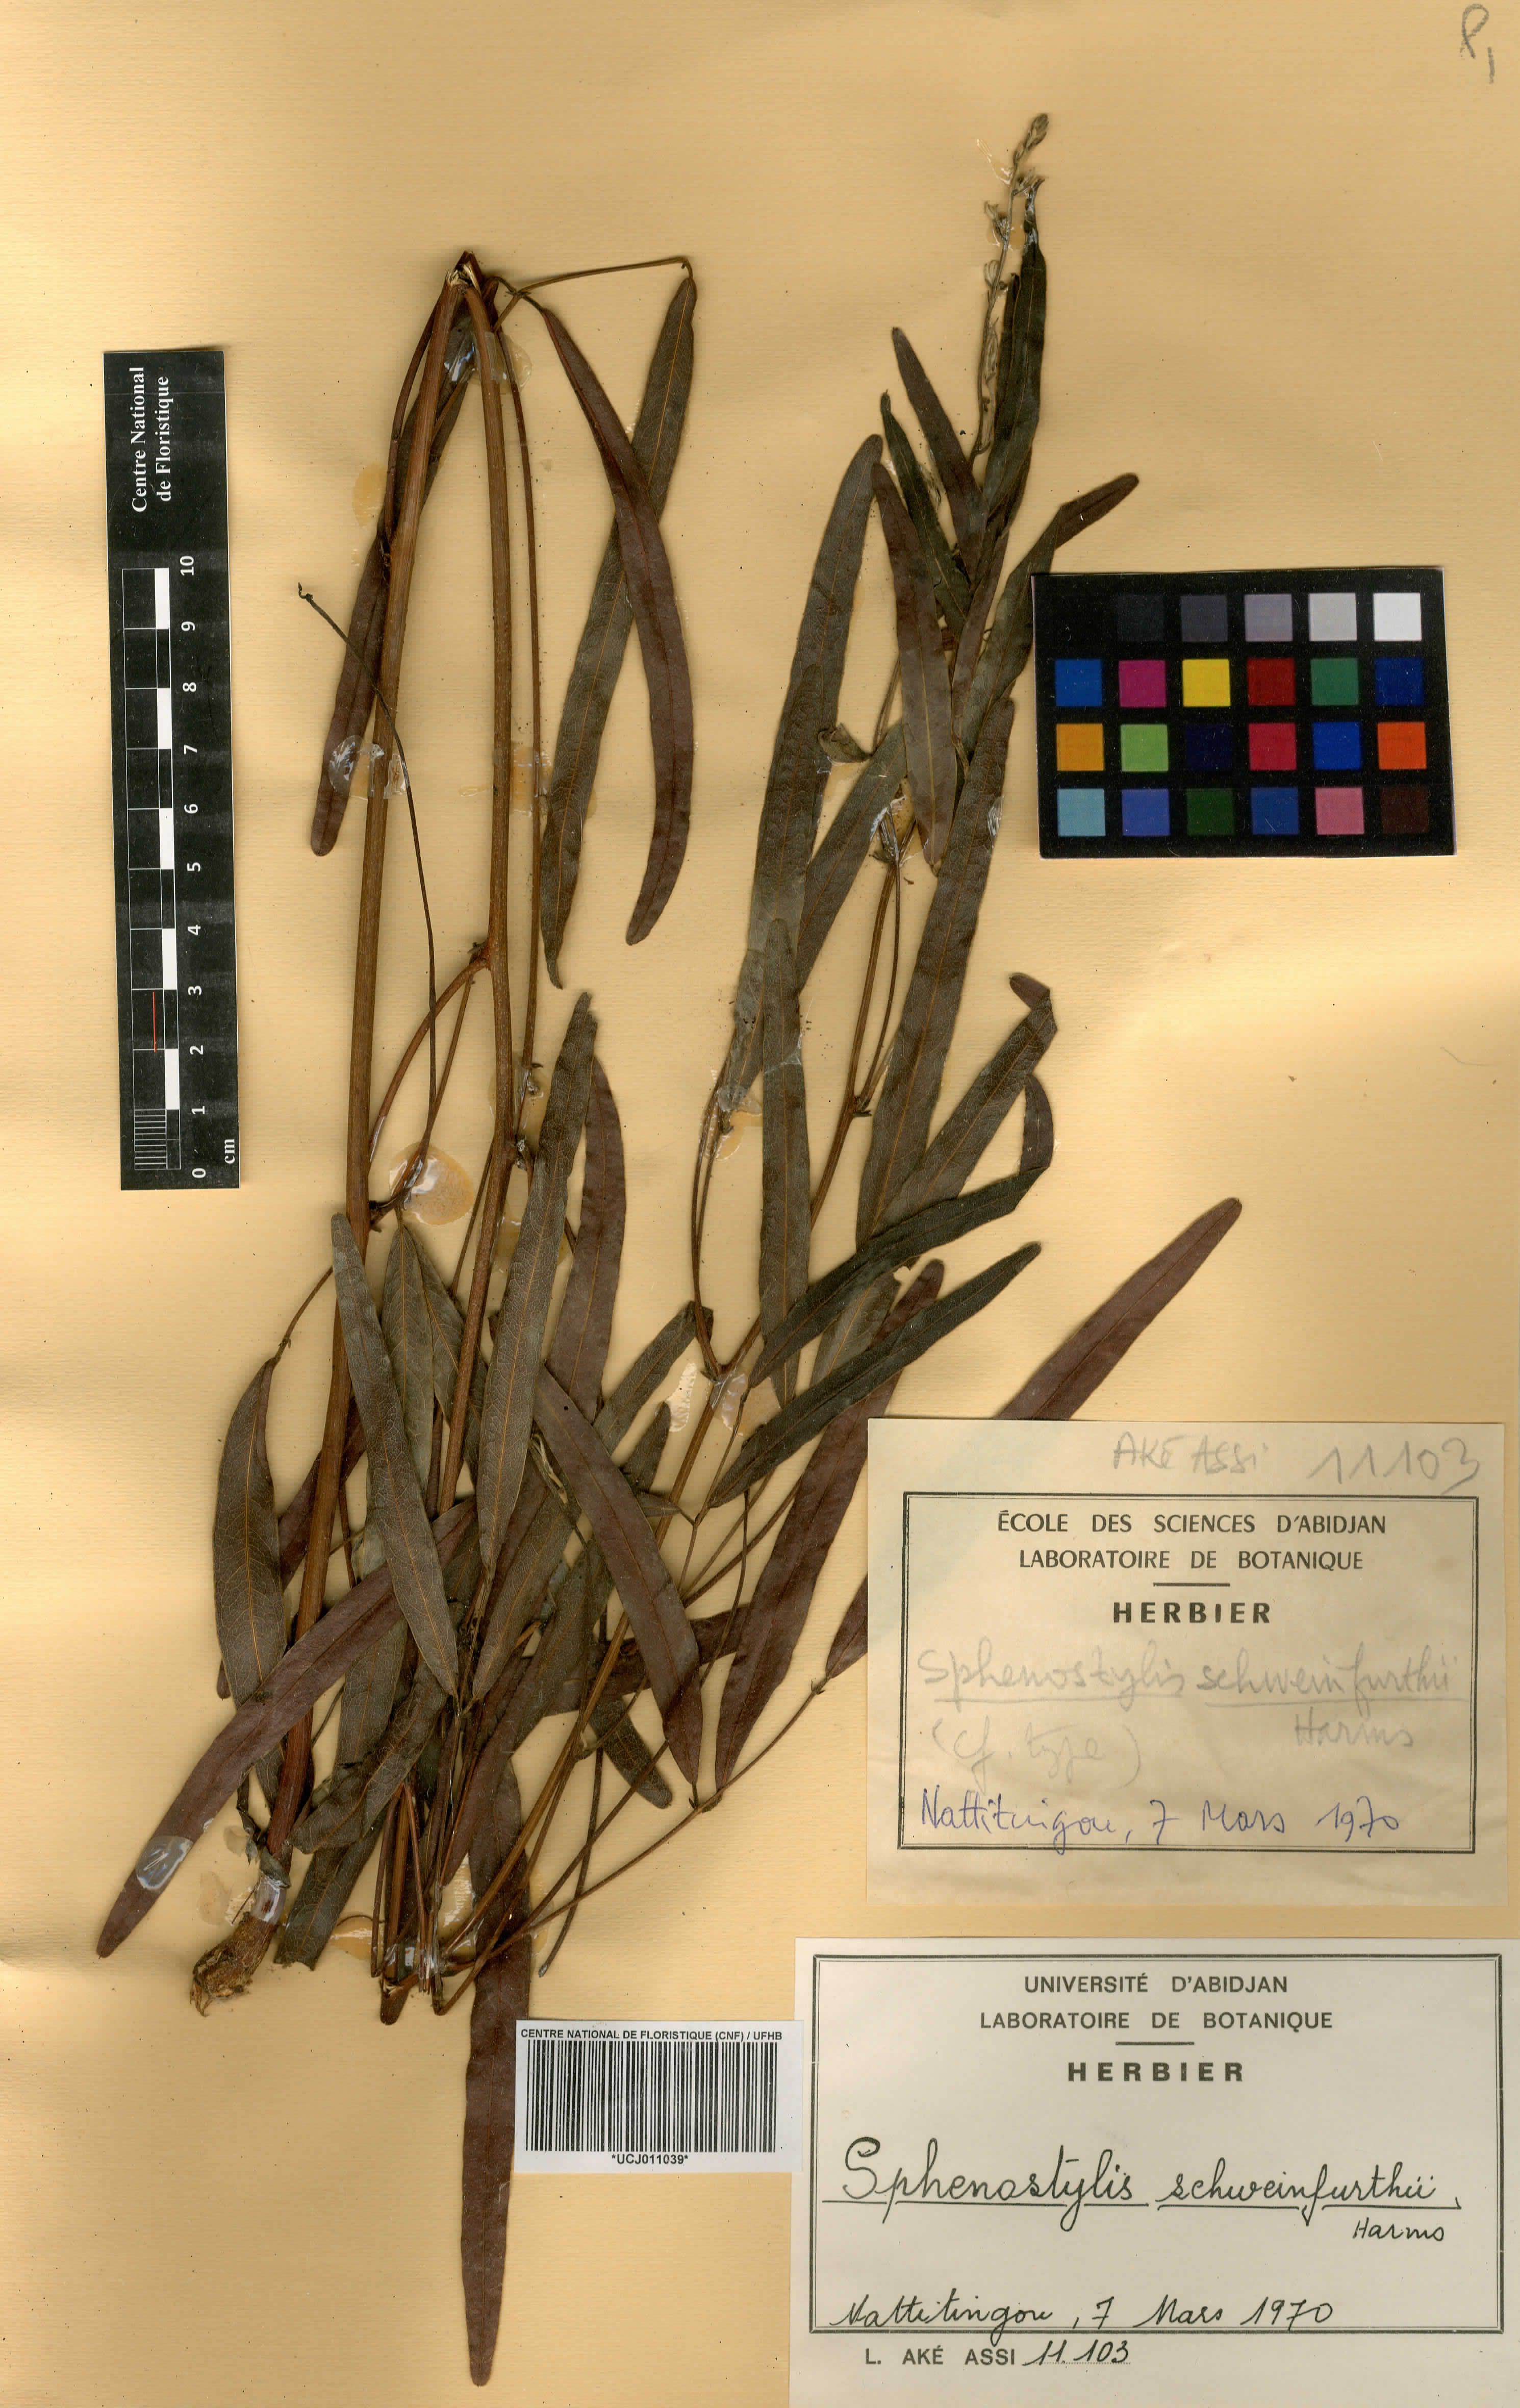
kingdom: Plantae
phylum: Tracheophyta
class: Magnoliopsida
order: Fabales
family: Fabaceae
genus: Sphenostylis
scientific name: Sphenostylis schweinfurthii
